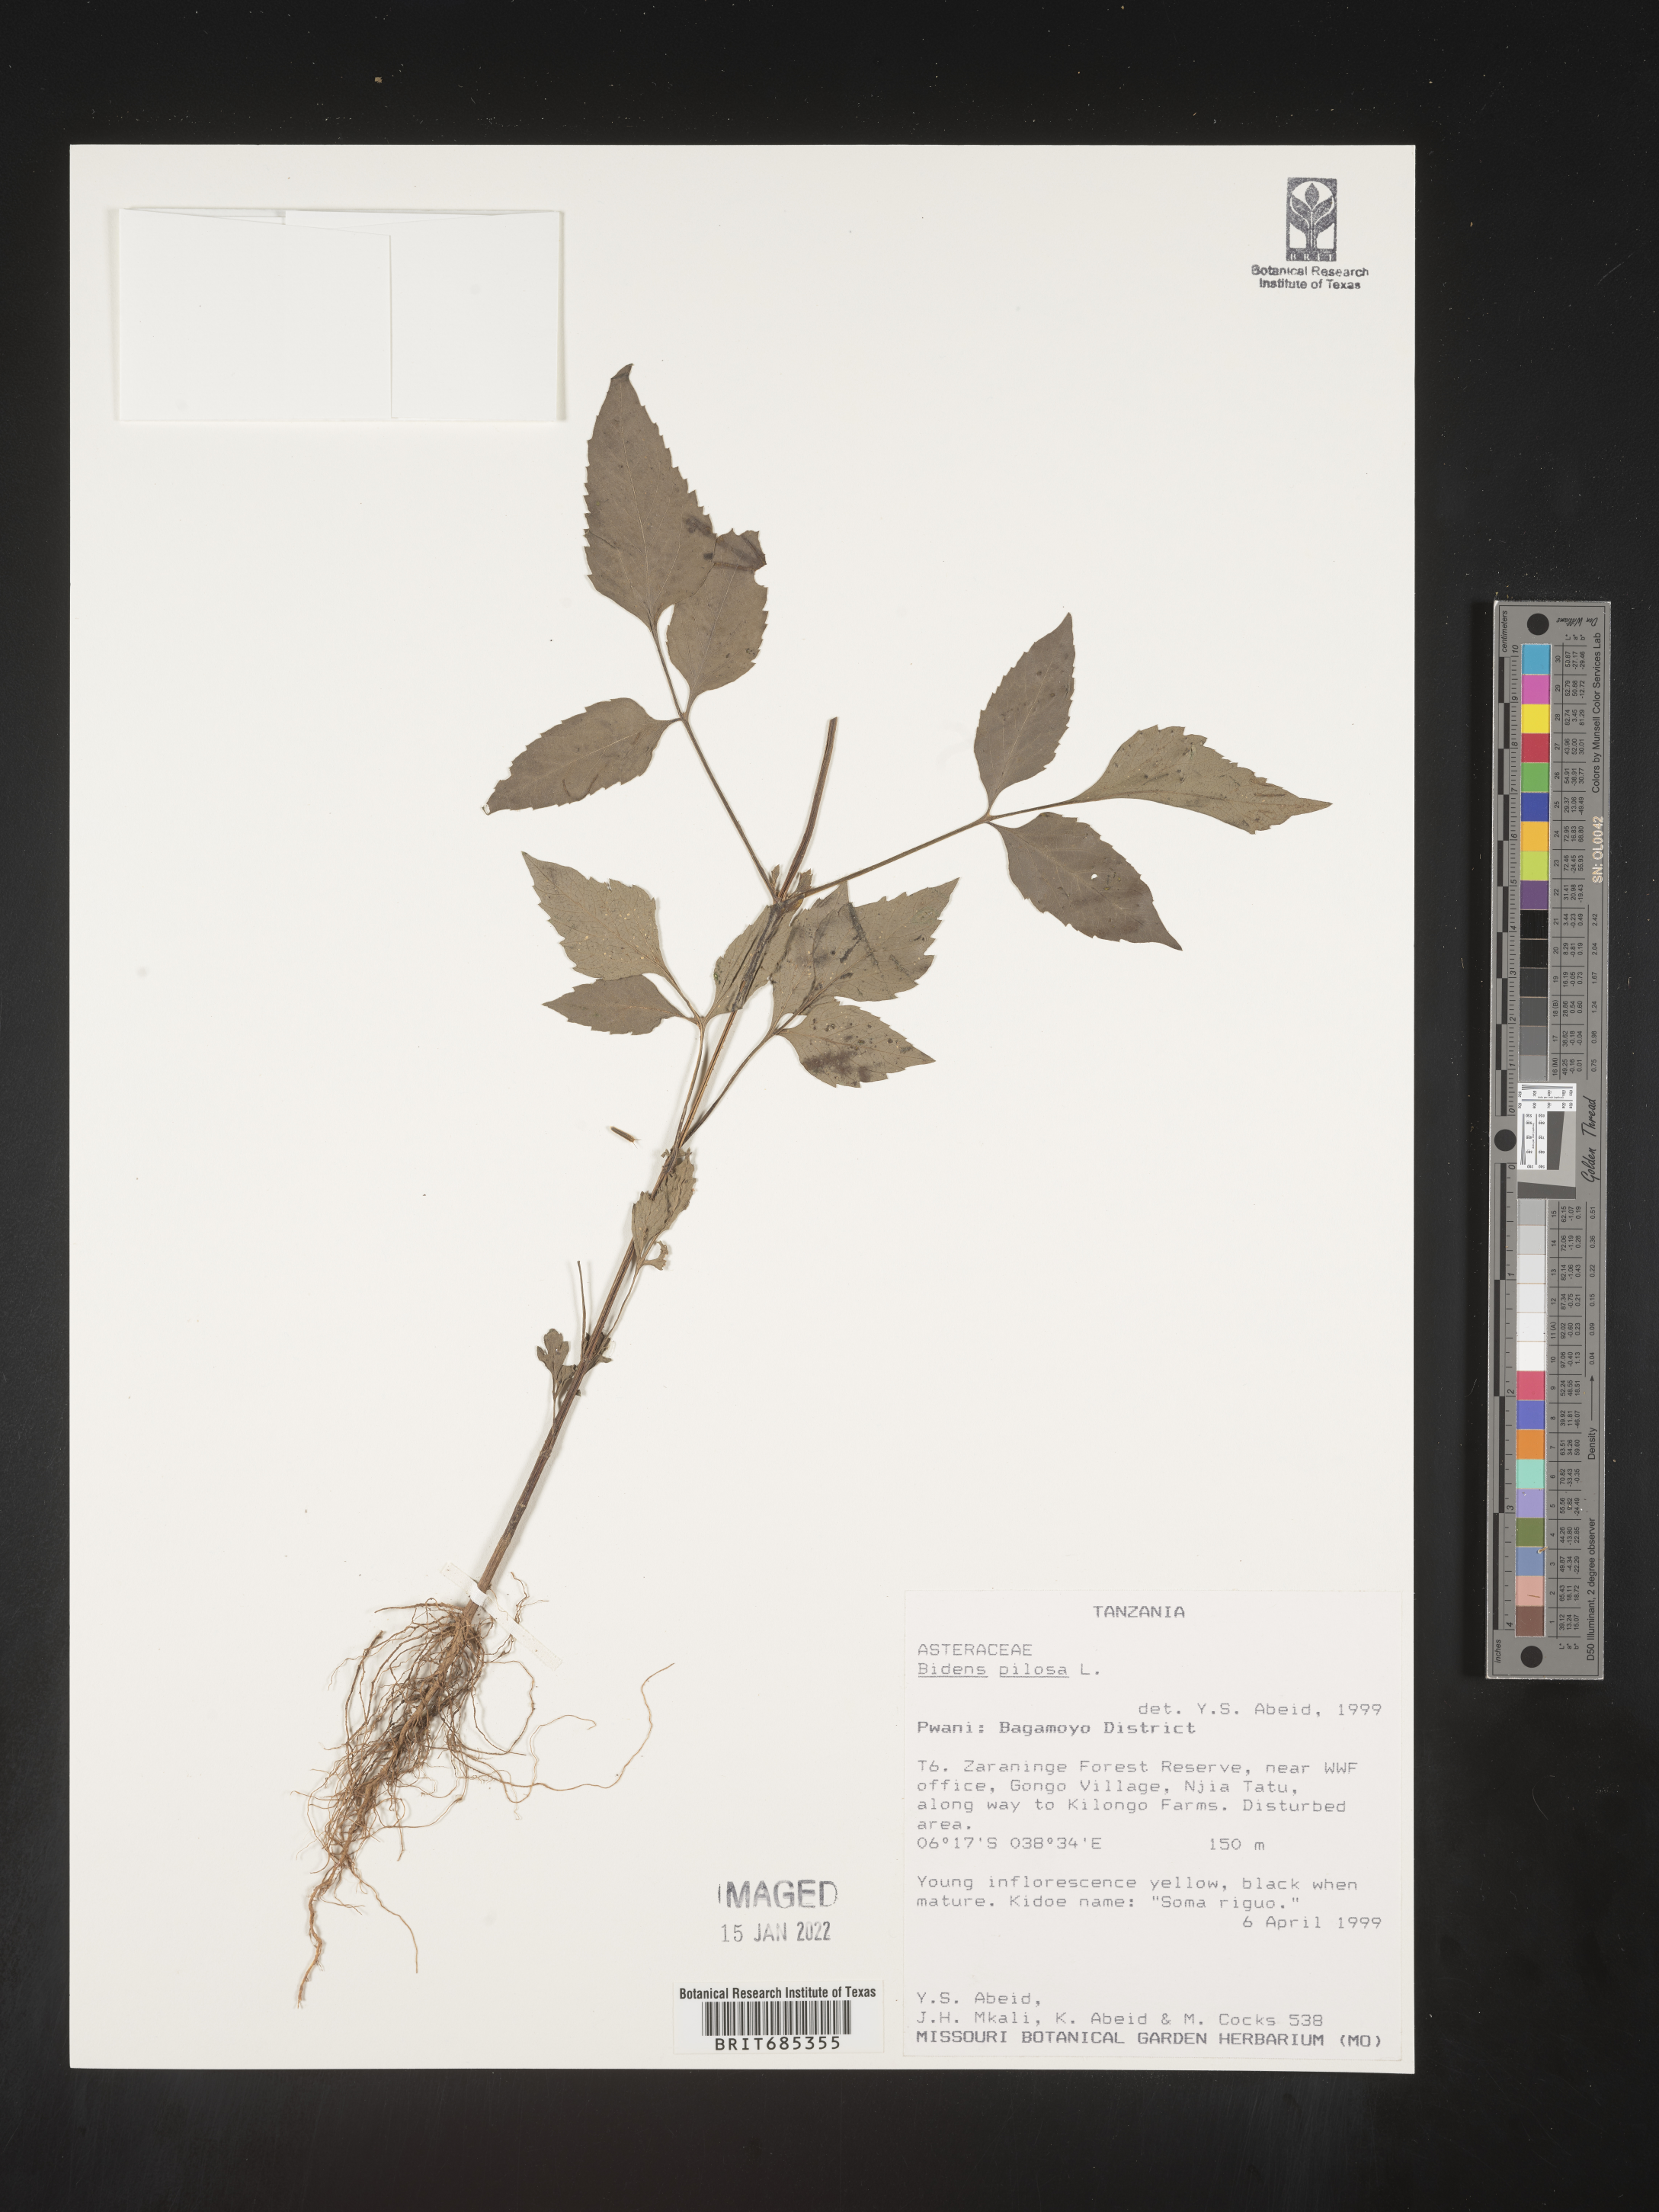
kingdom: Plantae
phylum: Tracheophyta
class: Magnoliopsida
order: Asterales
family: Asteraceae
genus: Bidens
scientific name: Bidens
